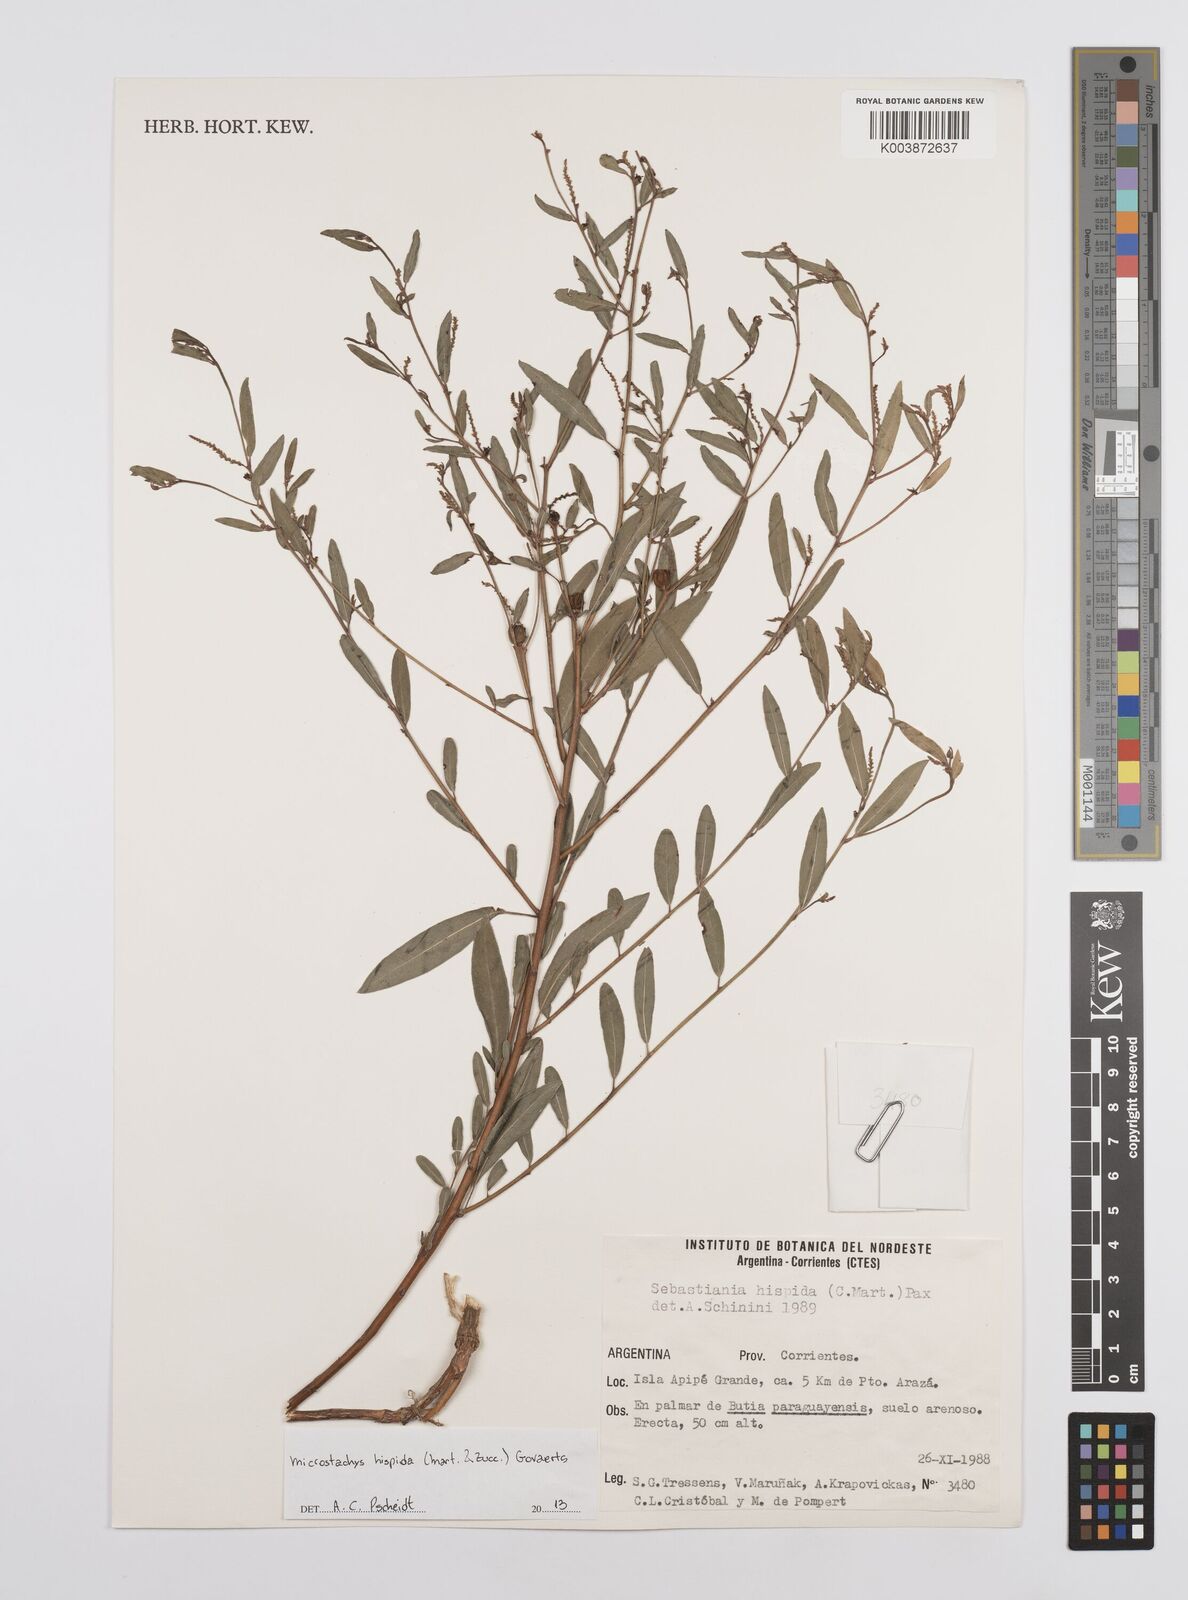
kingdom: Plantae
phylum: Tracheophyta
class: Magnoliopsida
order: Malpighiales
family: Euphorbiaceae
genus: Microstachys
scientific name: Microstachys hispida
